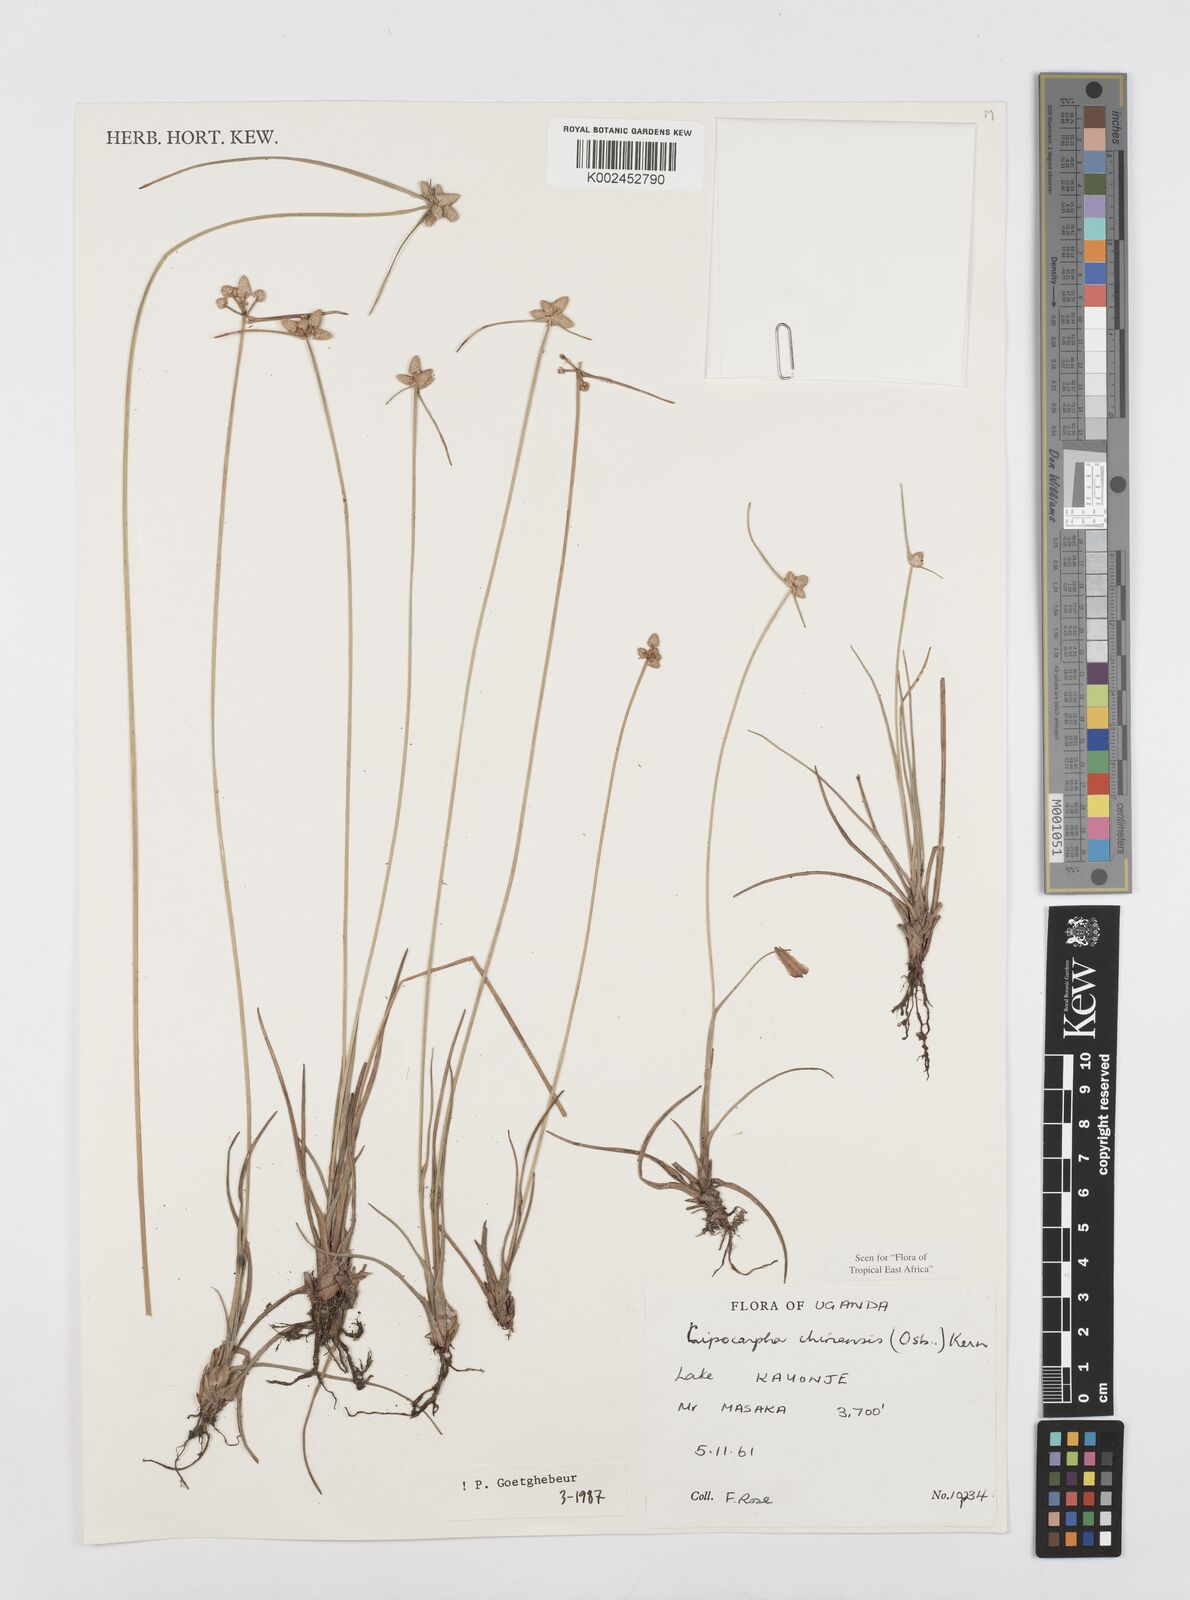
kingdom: Plantae
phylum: Tracheophyta
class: Liliopsida
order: Poales
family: Cyperaceae
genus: Cyperus
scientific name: Cyperus albescens
